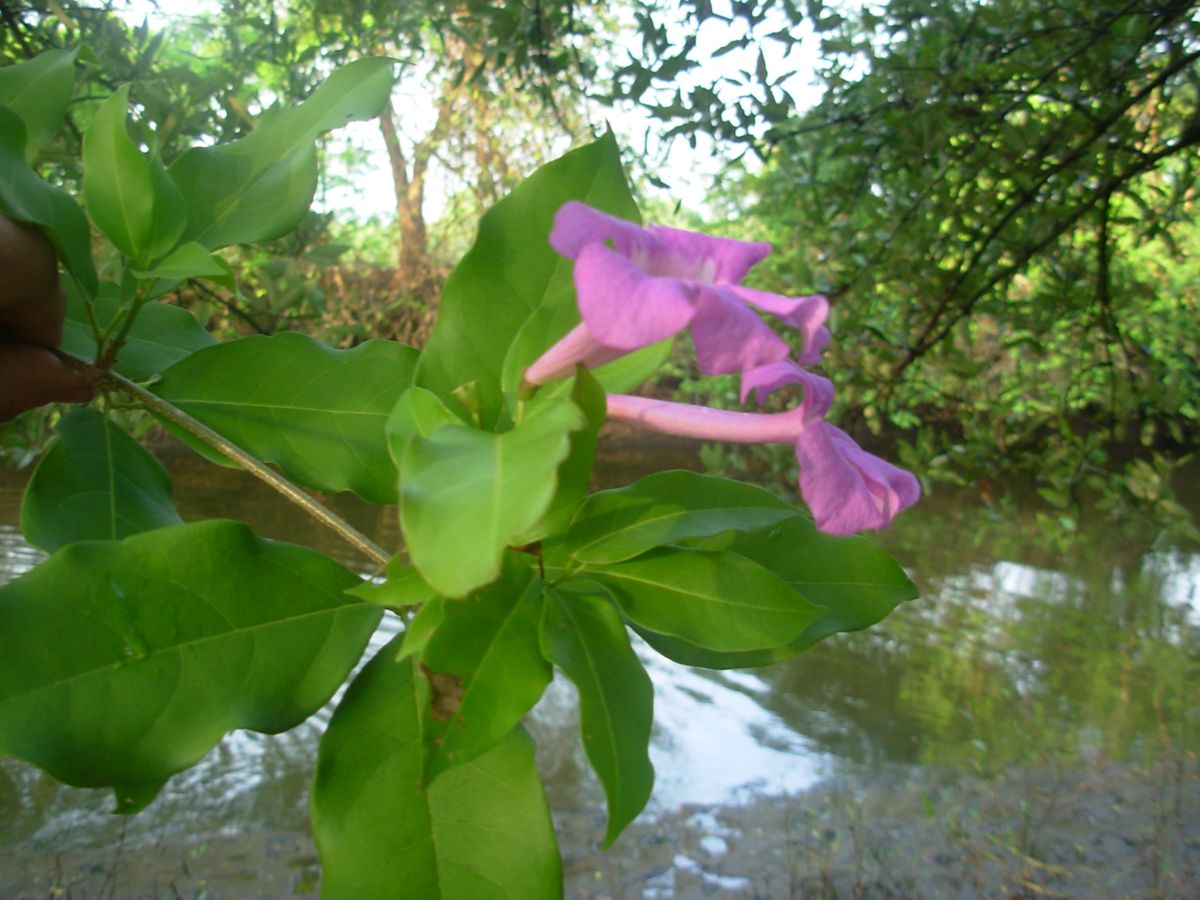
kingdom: Plantae
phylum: Tracheophyta
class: Magnoliopsida
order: Lamiales
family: Bignoniaceae
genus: Bignonia
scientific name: Bignonia noterophila
